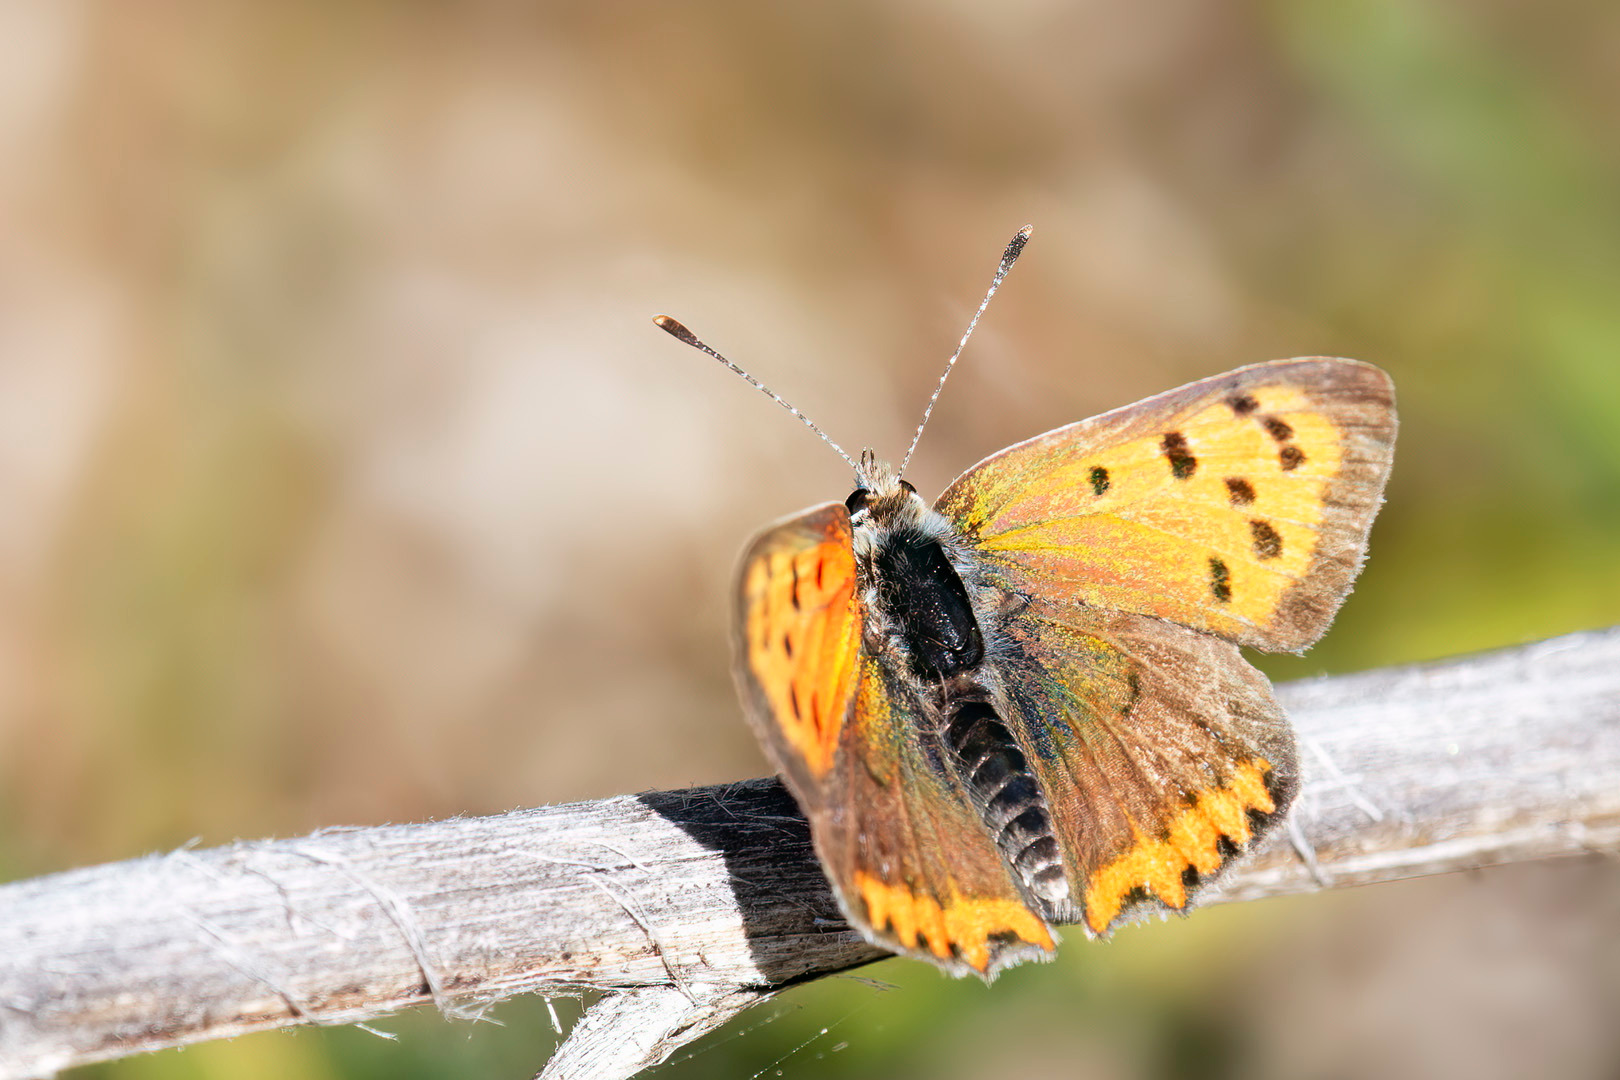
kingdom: Animalia
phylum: Arthropoda
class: Insecta
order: Lepidoptera
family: Lycaenidae
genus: Lycaena
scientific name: Lycaena phlaeas
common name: Lille ildfugl
